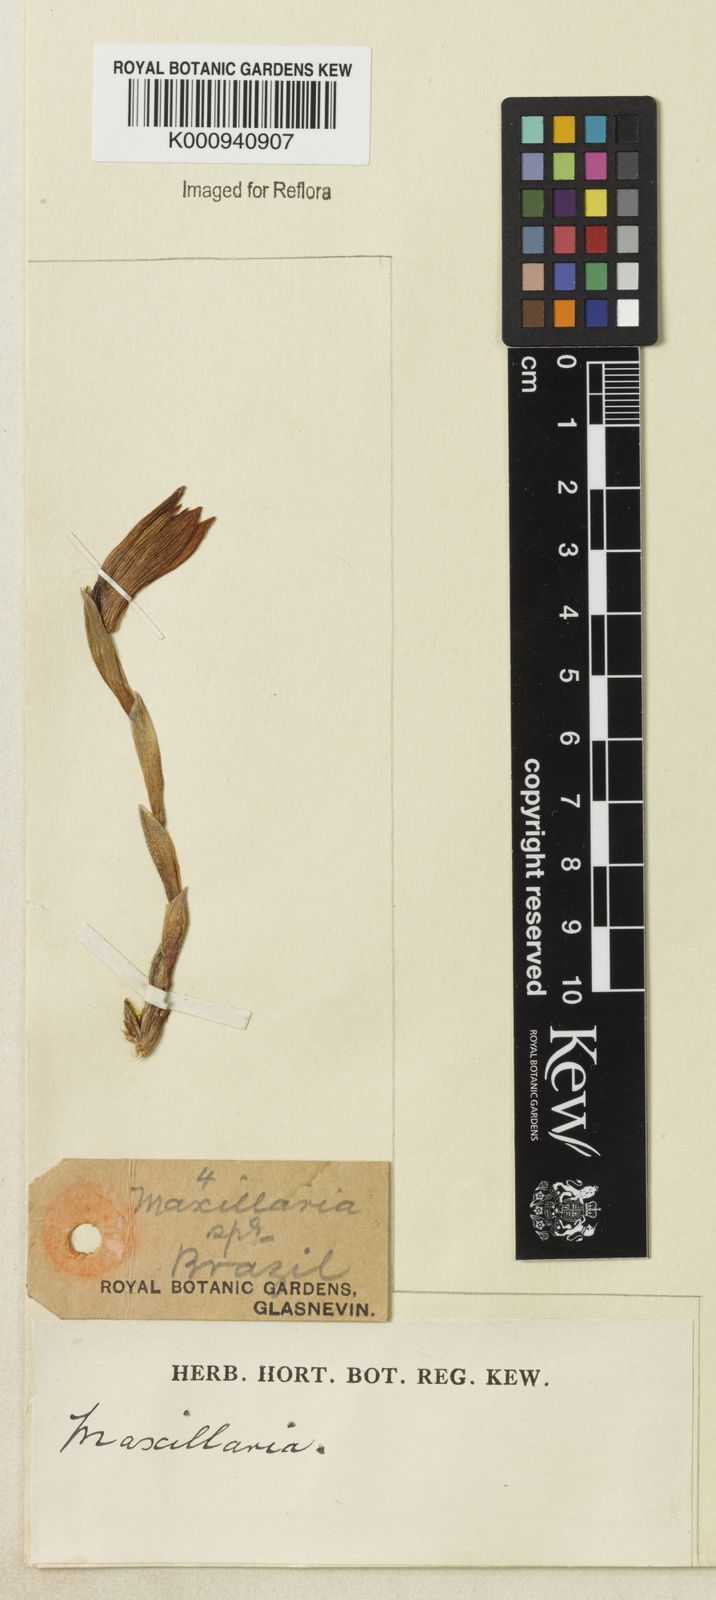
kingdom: Plantae
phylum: Tracheophyta
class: Liliopsida
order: Asparagales
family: Orchidaceae
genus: Maxillaria
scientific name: Maxillaria
